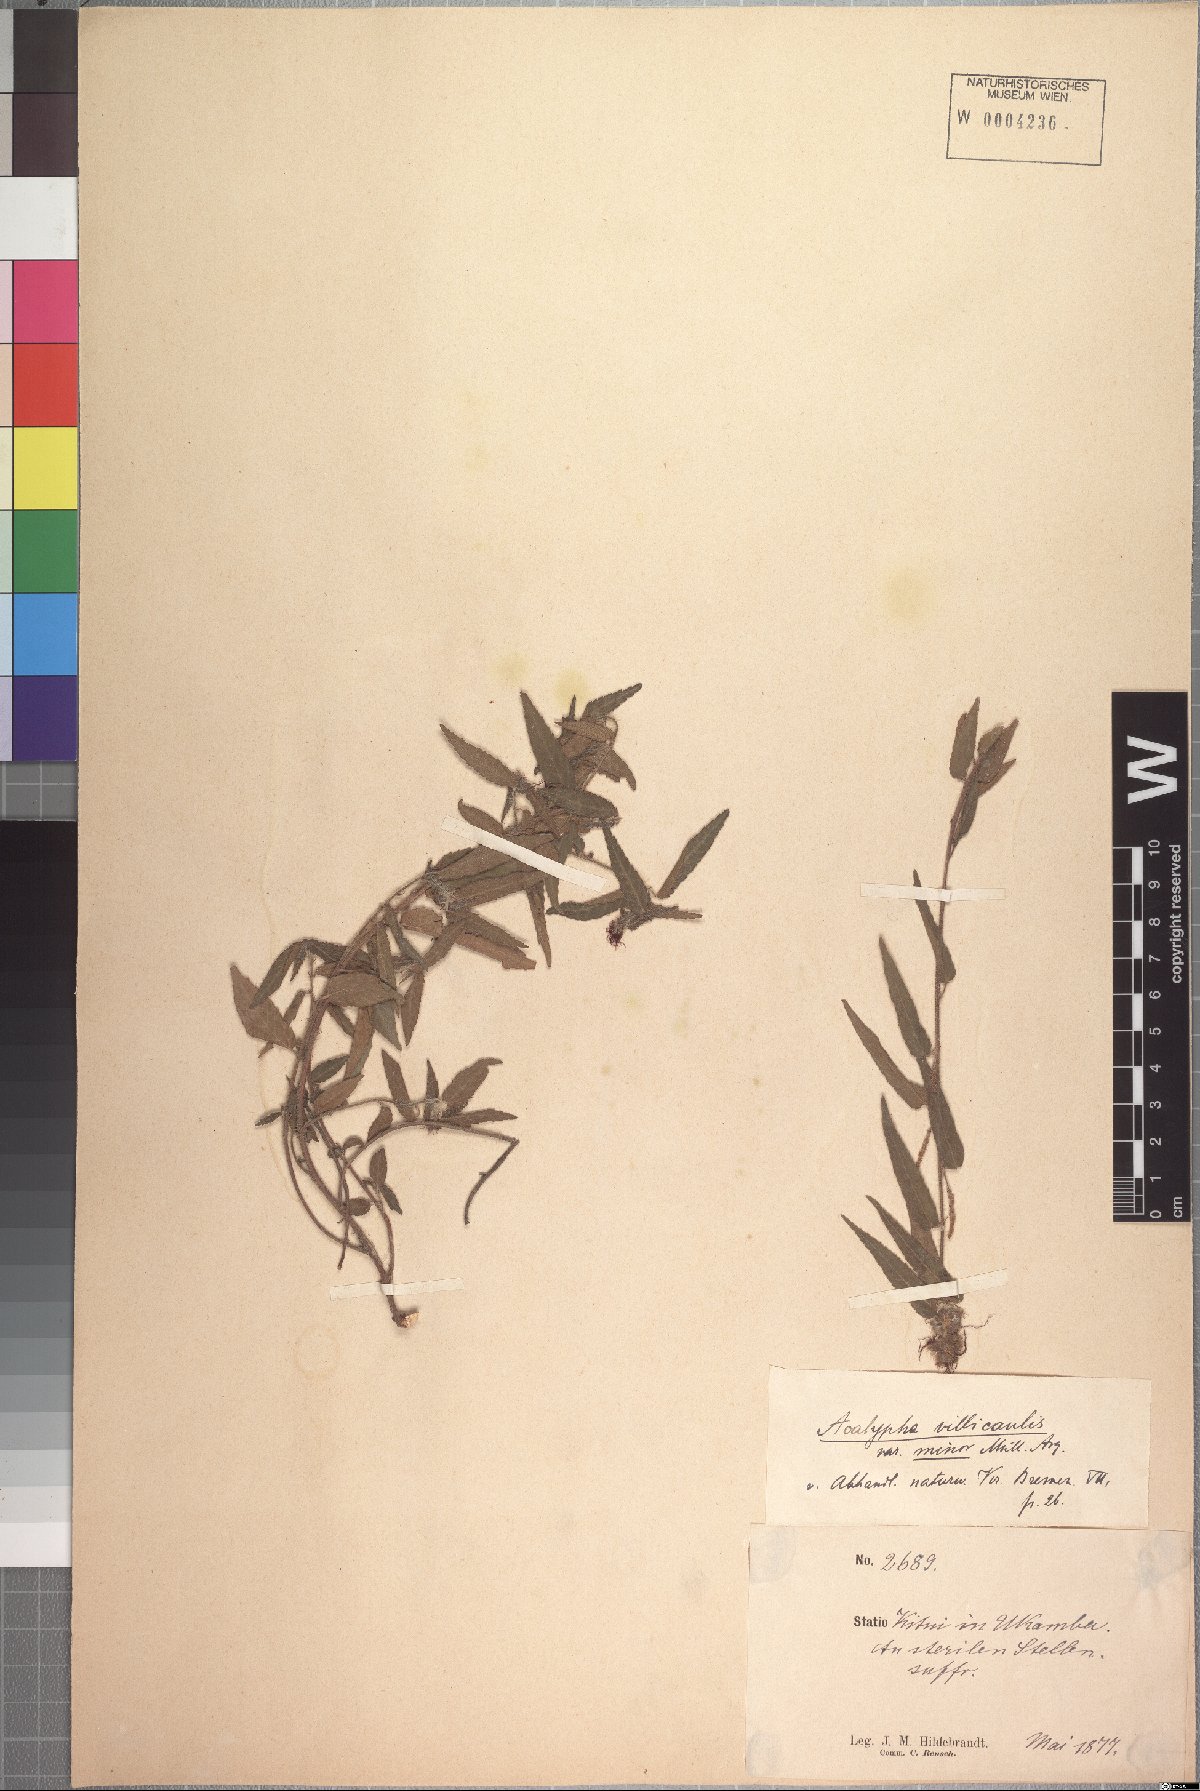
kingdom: Plantae
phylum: Tracheophyta
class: Magnoliopsida
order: Malpighiales
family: Euphorbiaceae
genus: Acalypha
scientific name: Acalypha petiolaris
